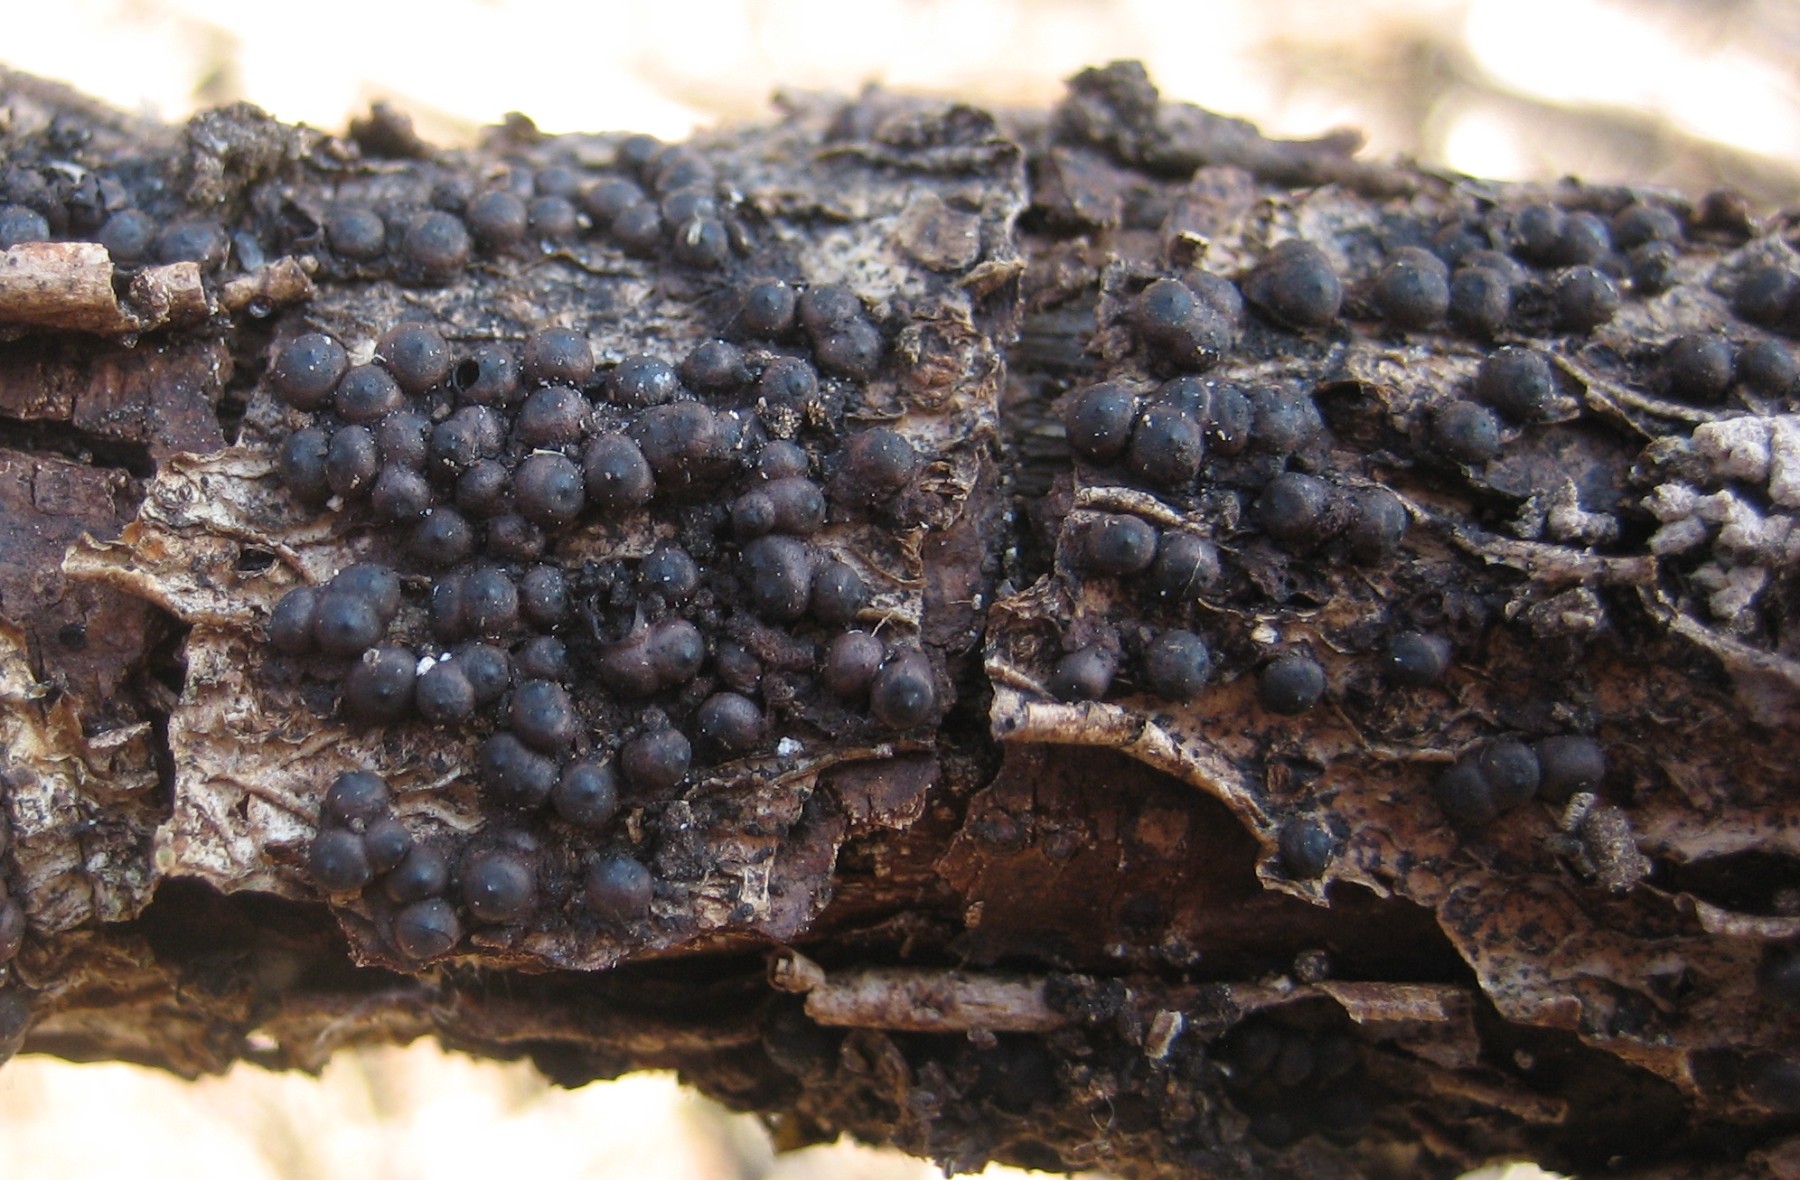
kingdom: Fungi
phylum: Ascomycota
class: Sordariomycetes
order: Xylariales
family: Xylariaceae
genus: Rosellinia
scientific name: Rosellinia
